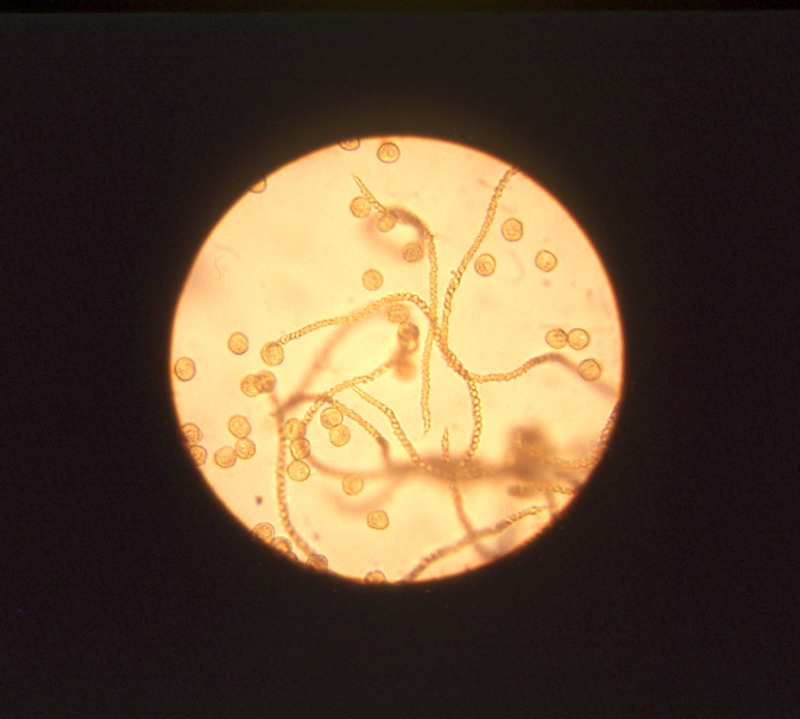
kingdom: Protozoa
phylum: Mycetozoa
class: Myxomycetes
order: Trichiales
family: Trichiaceae
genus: Oligonema
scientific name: Oligonema favogineum
